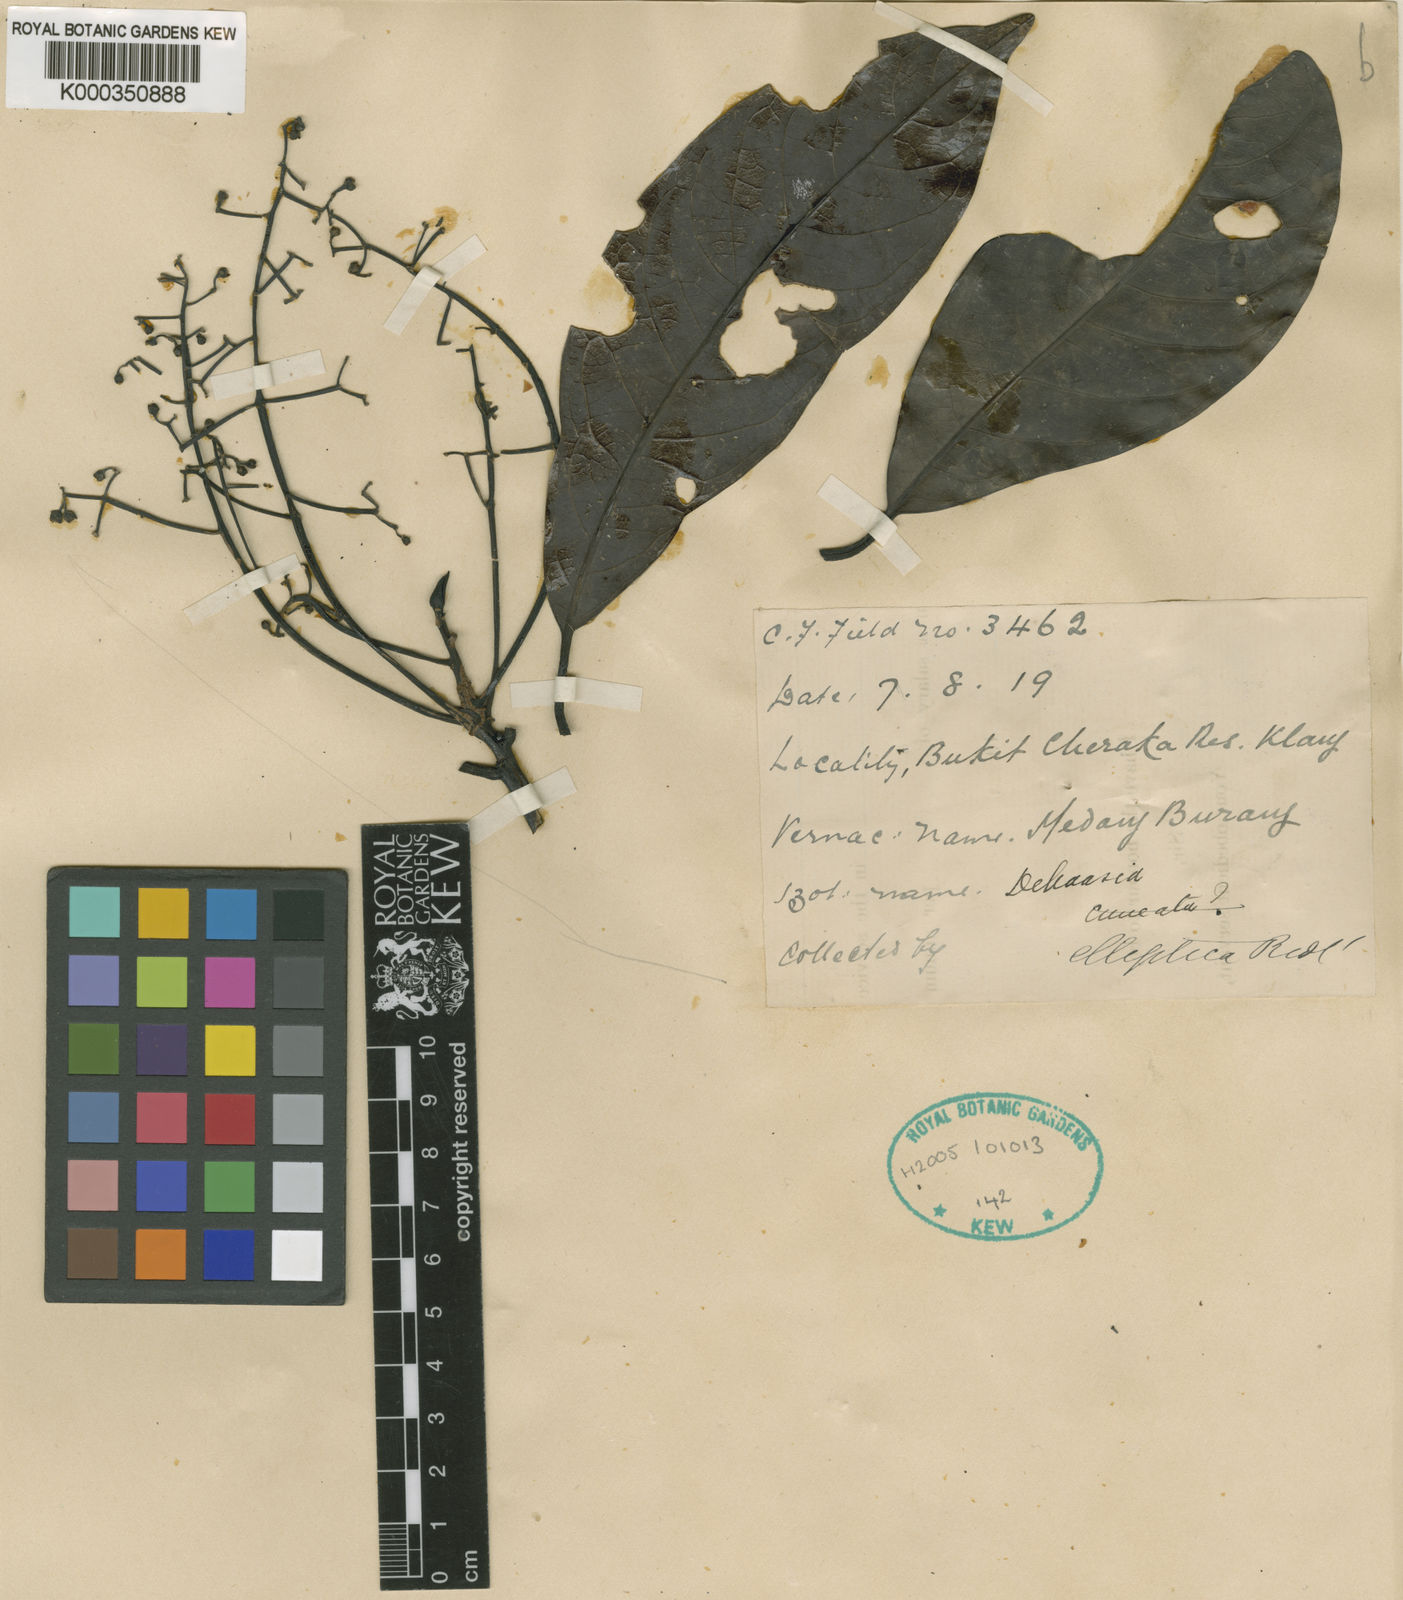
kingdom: Plantae
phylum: Tracheophyta
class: Magnoliopsida
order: Laurales
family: Lauraceae
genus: Dehaasia
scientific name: Dehaasia polyneura
